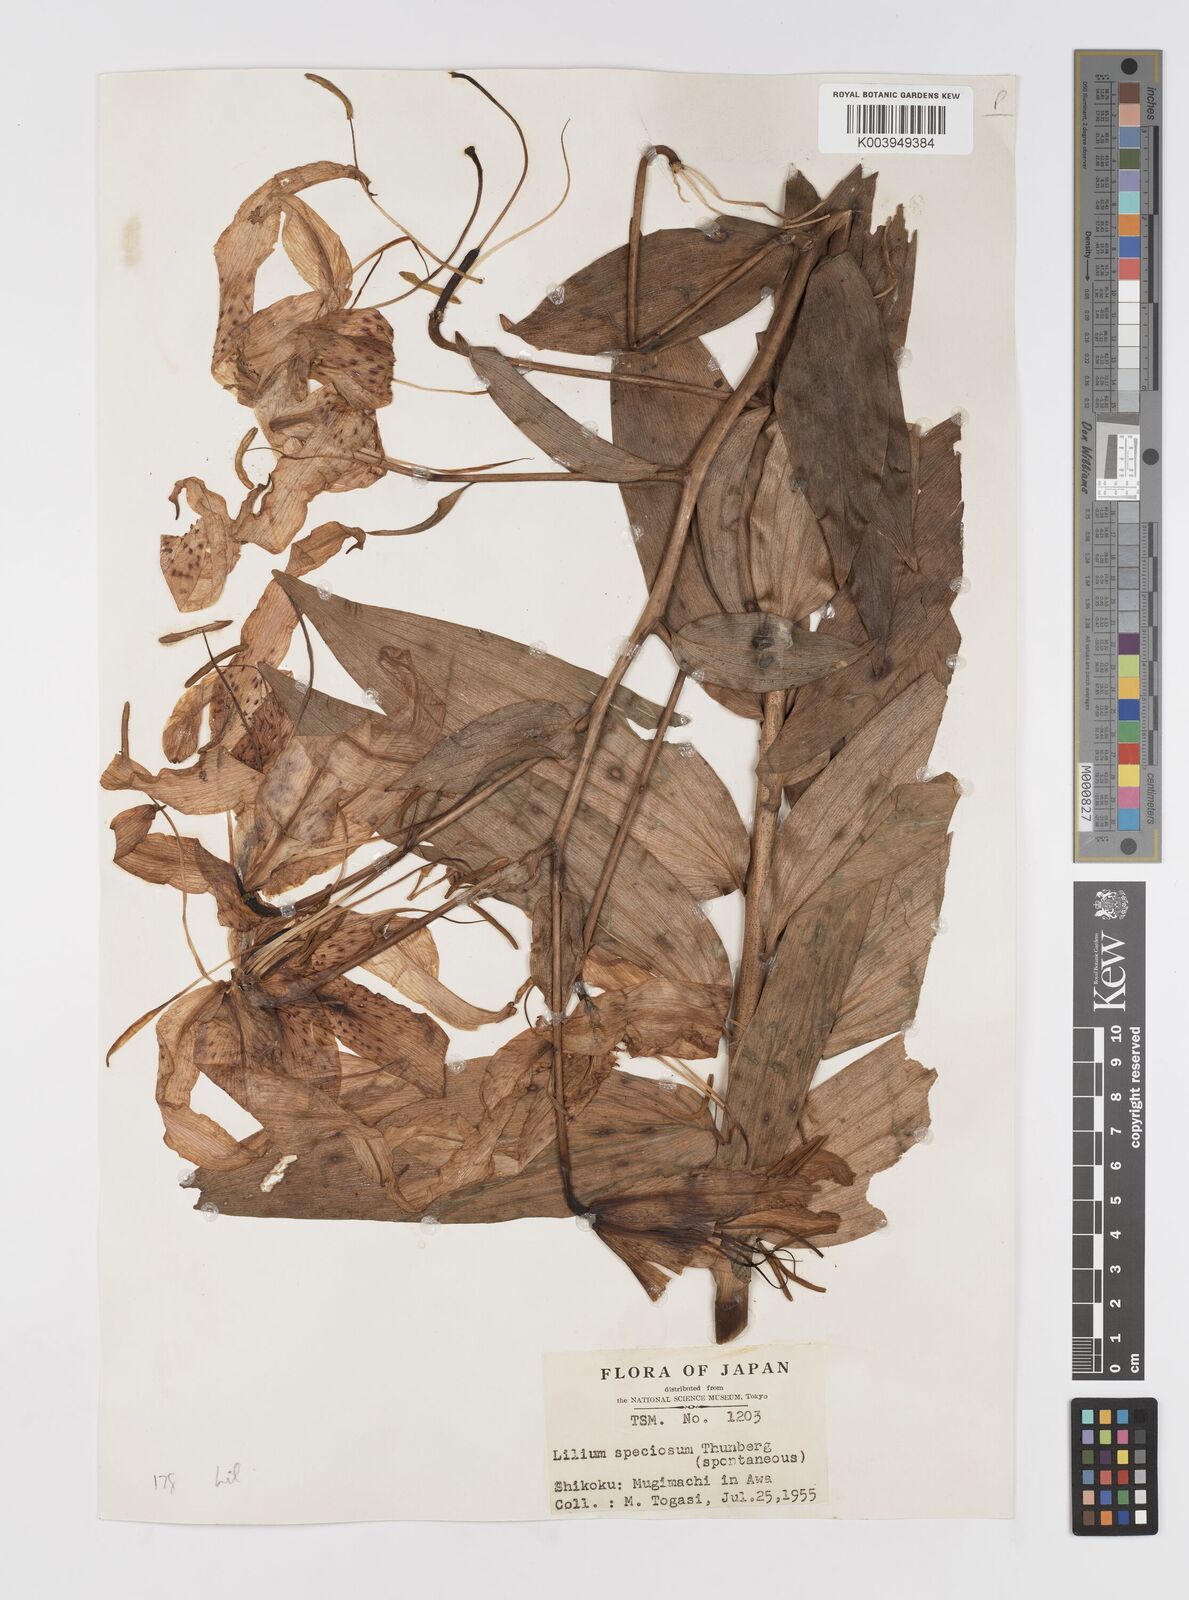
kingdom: Plantae
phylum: Tracheophyta
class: Liliopsida
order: Liliales
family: Liliaceae
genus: Lilium
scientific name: Lilium speciosum
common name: Japanese lily
